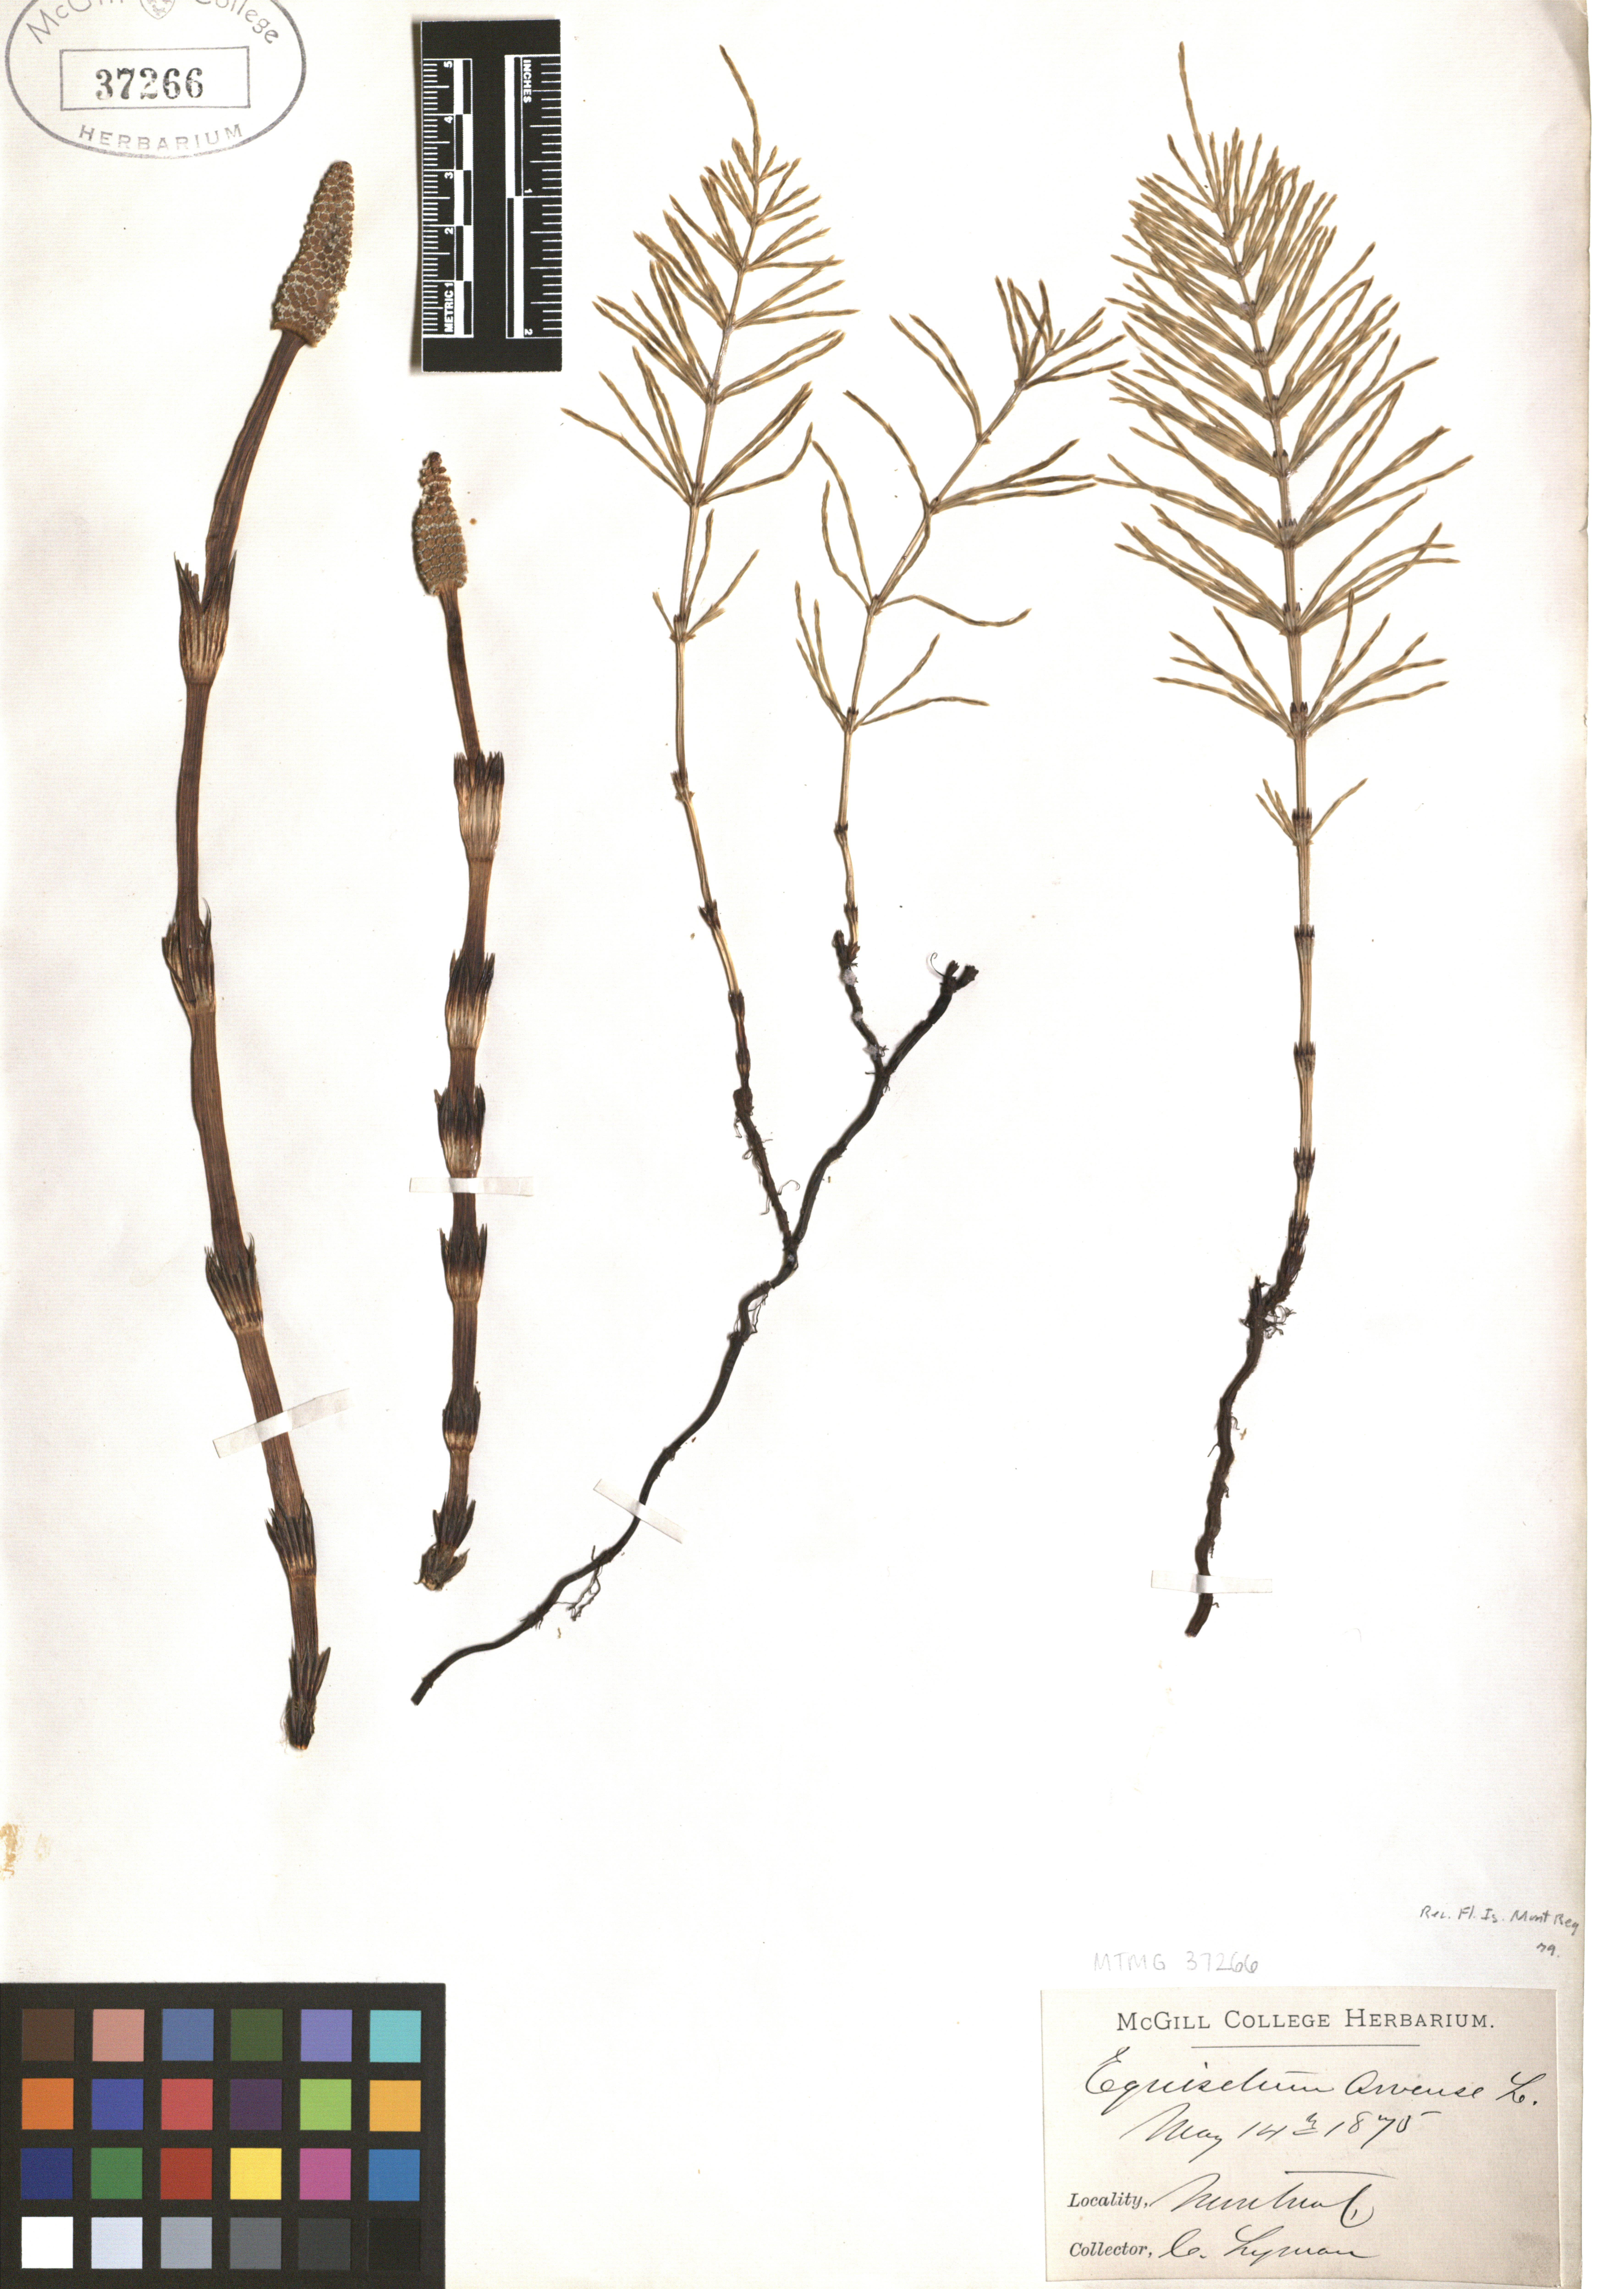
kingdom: Plantae
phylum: Tracheophyta
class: Polypodiopsida
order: Equisetales
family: Equisetaceae
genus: Equisetum
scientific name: Equisetum arvense
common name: Field horsetail
